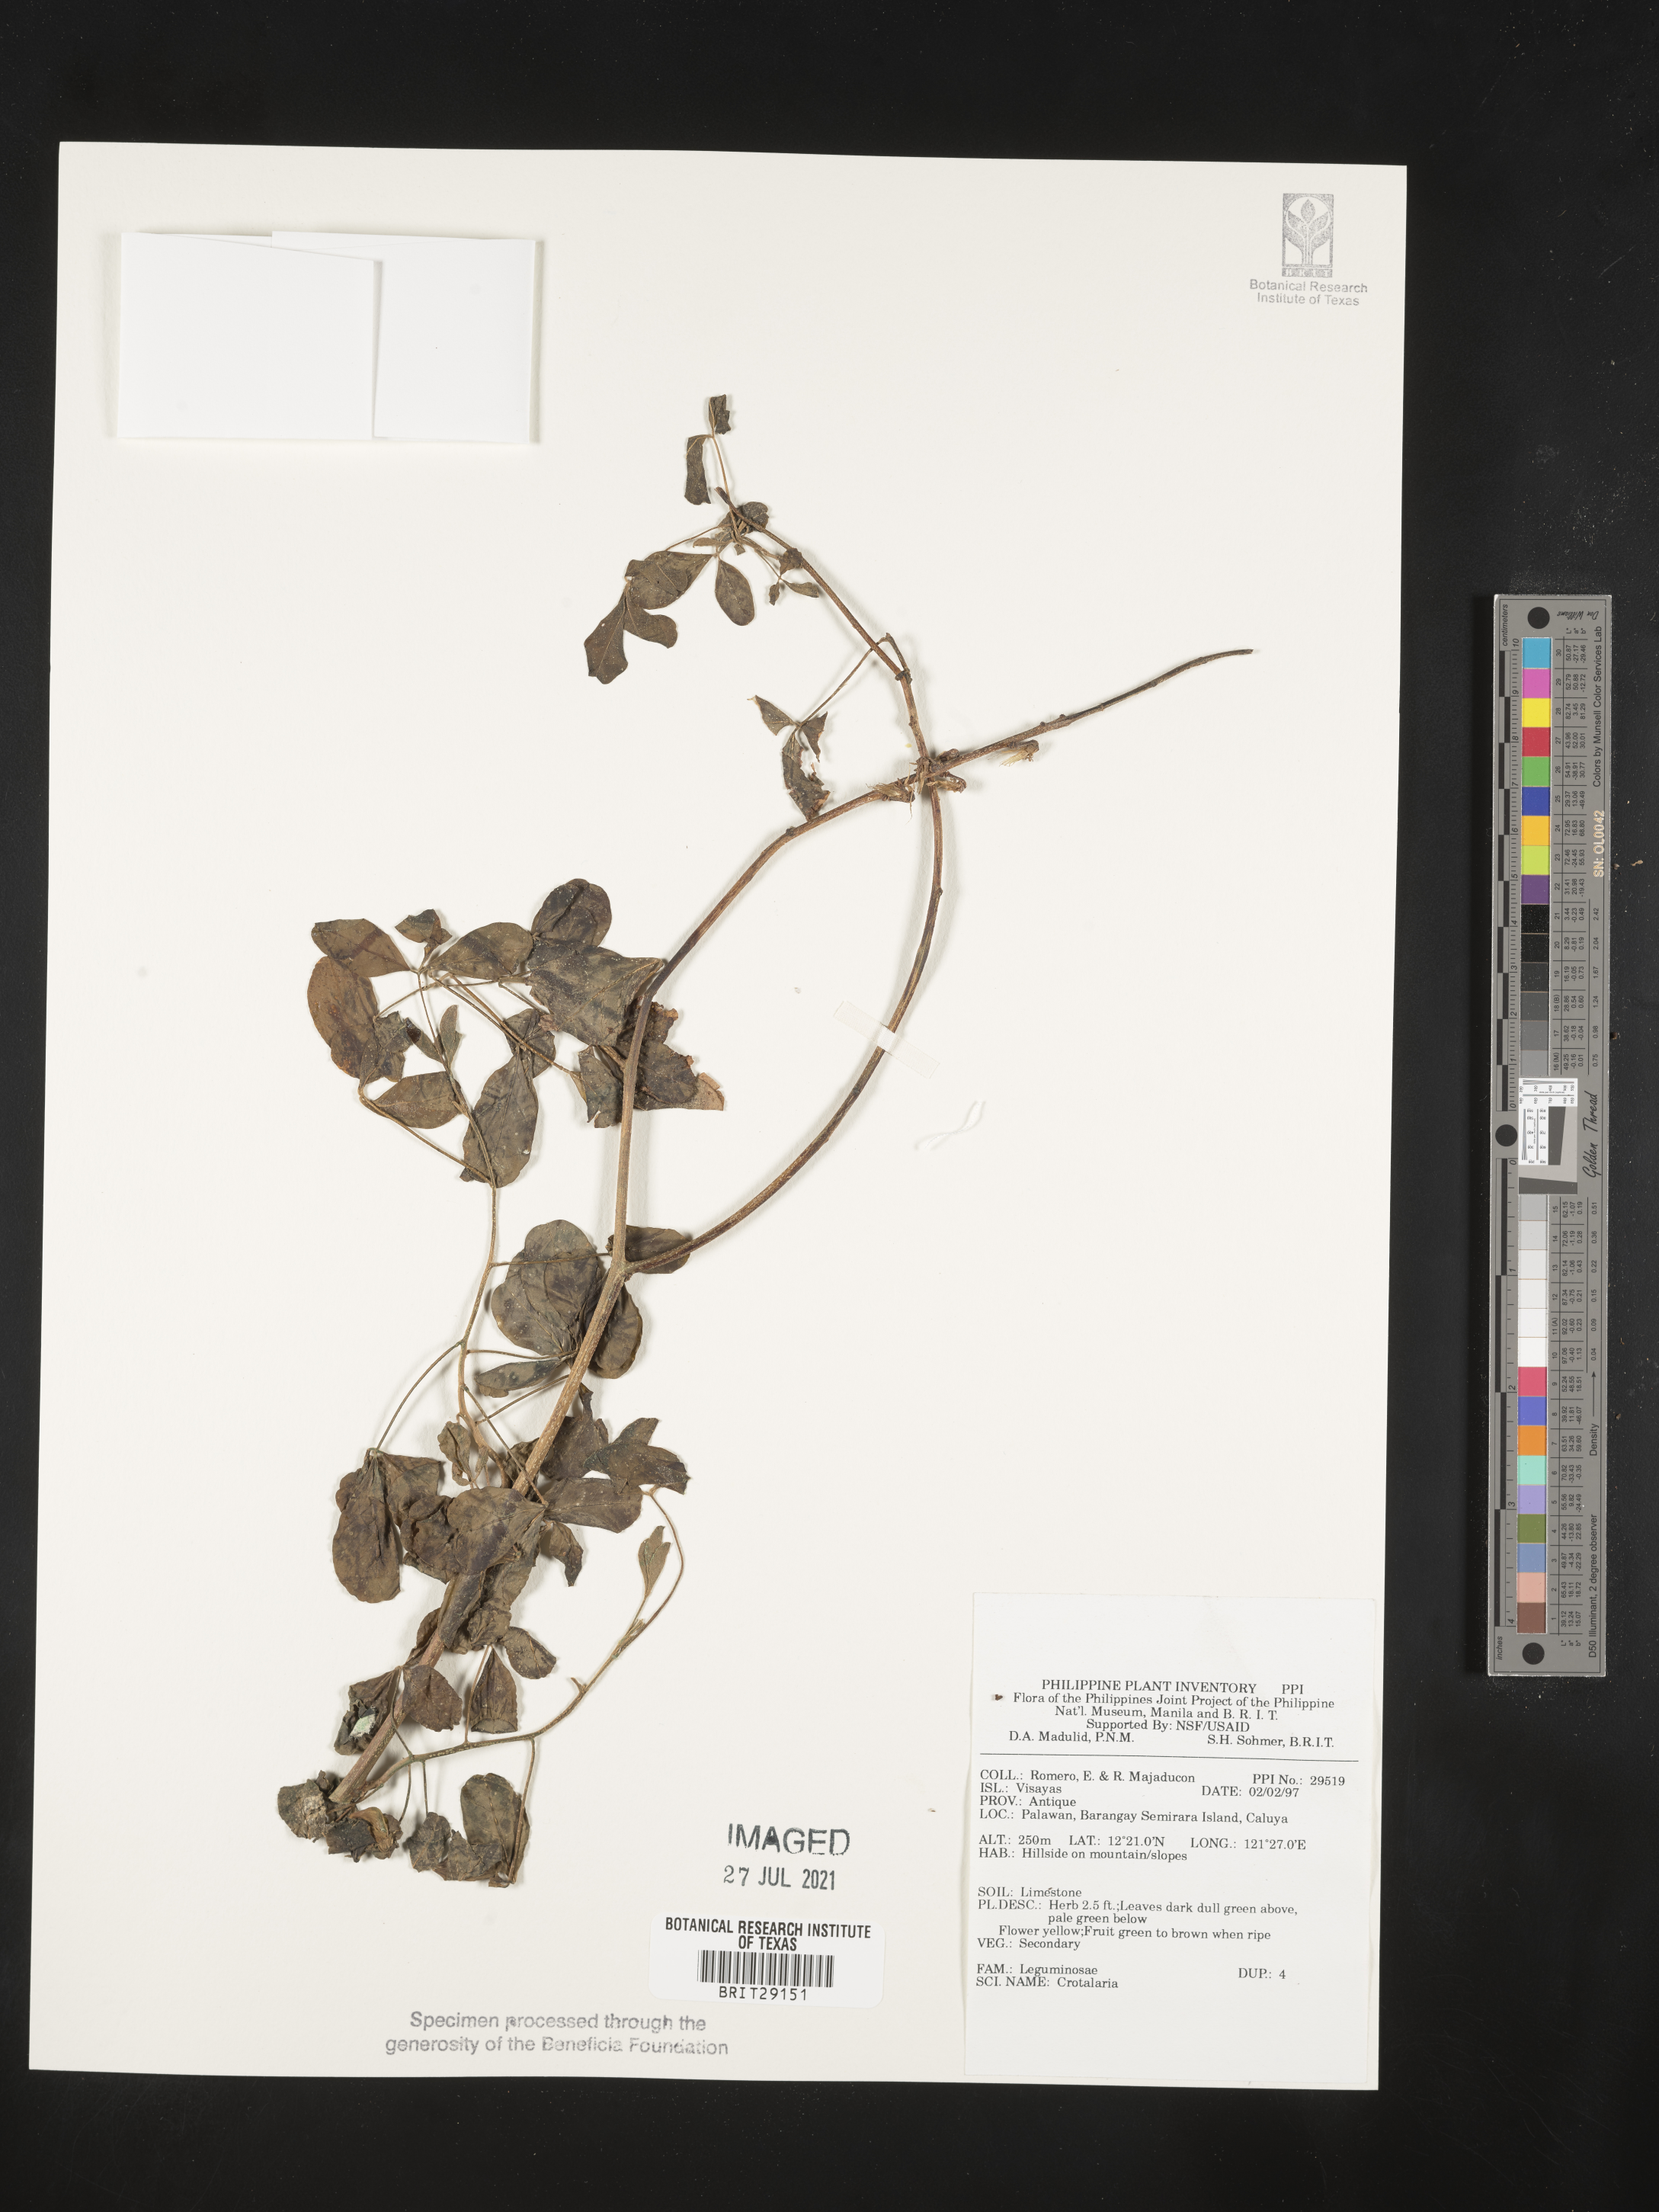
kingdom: Plantae
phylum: Tracheophyta
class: Magnoliopsida
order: Fabales
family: Fabaceae
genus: Crotalaria
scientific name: Crotalaria
